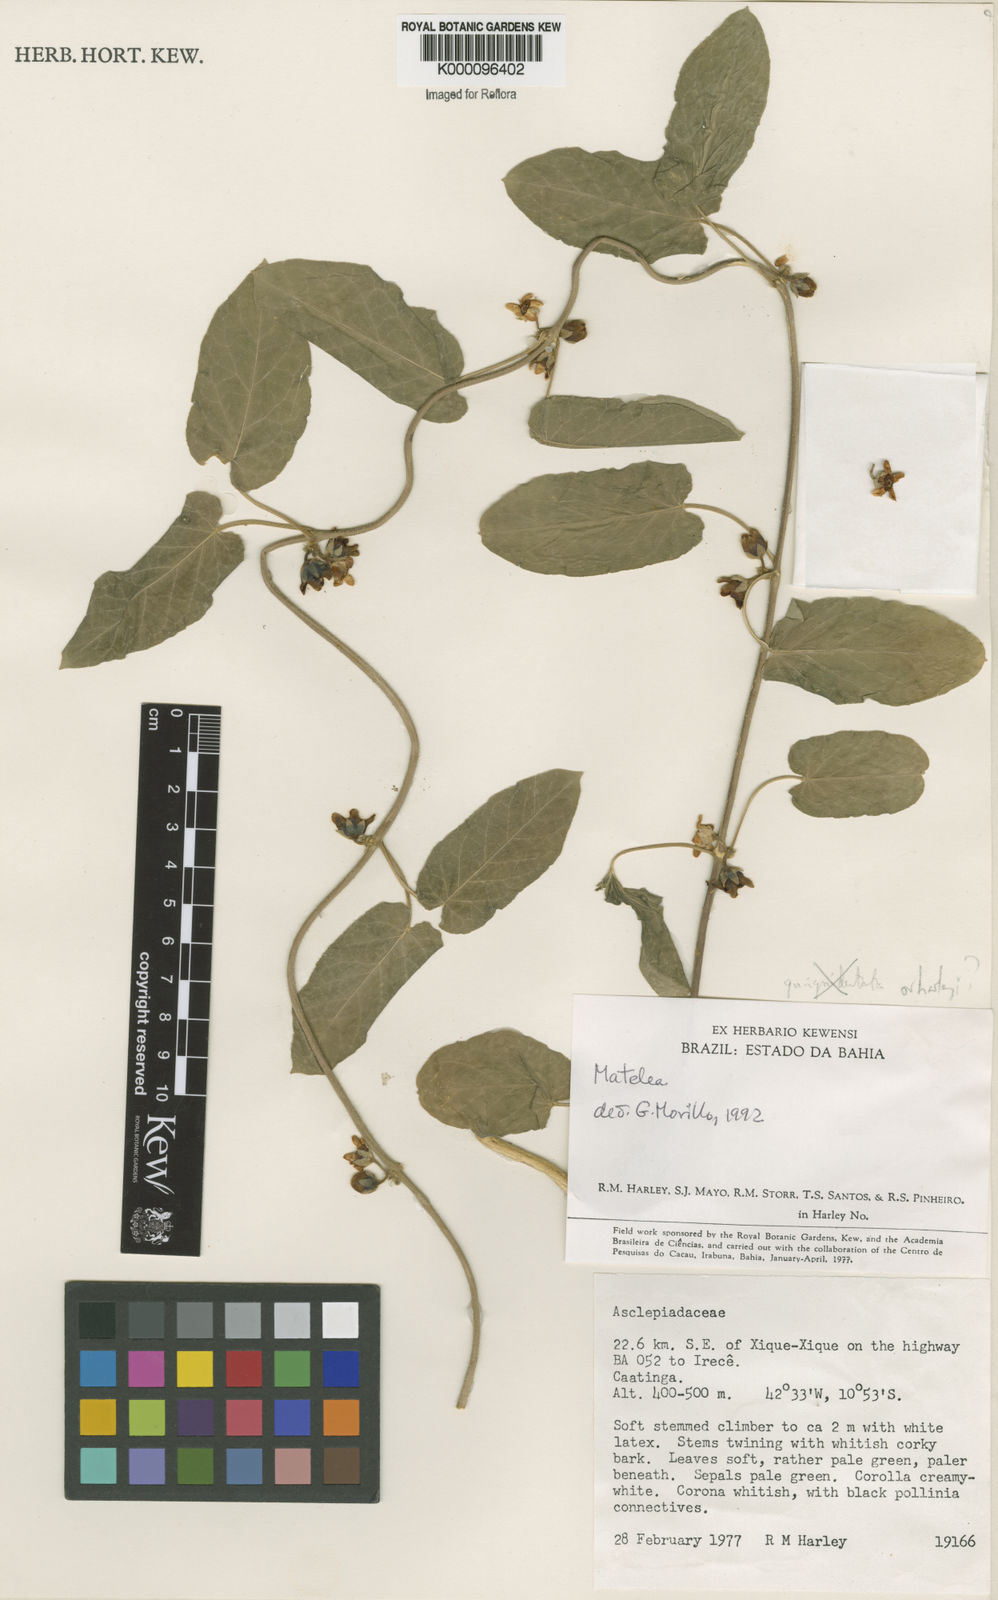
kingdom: Plantae
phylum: Tracheophyta
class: Magnoliopsida
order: Gentianales
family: Apocynaceae
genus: Ibatia
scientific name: Ibatia harleyi
